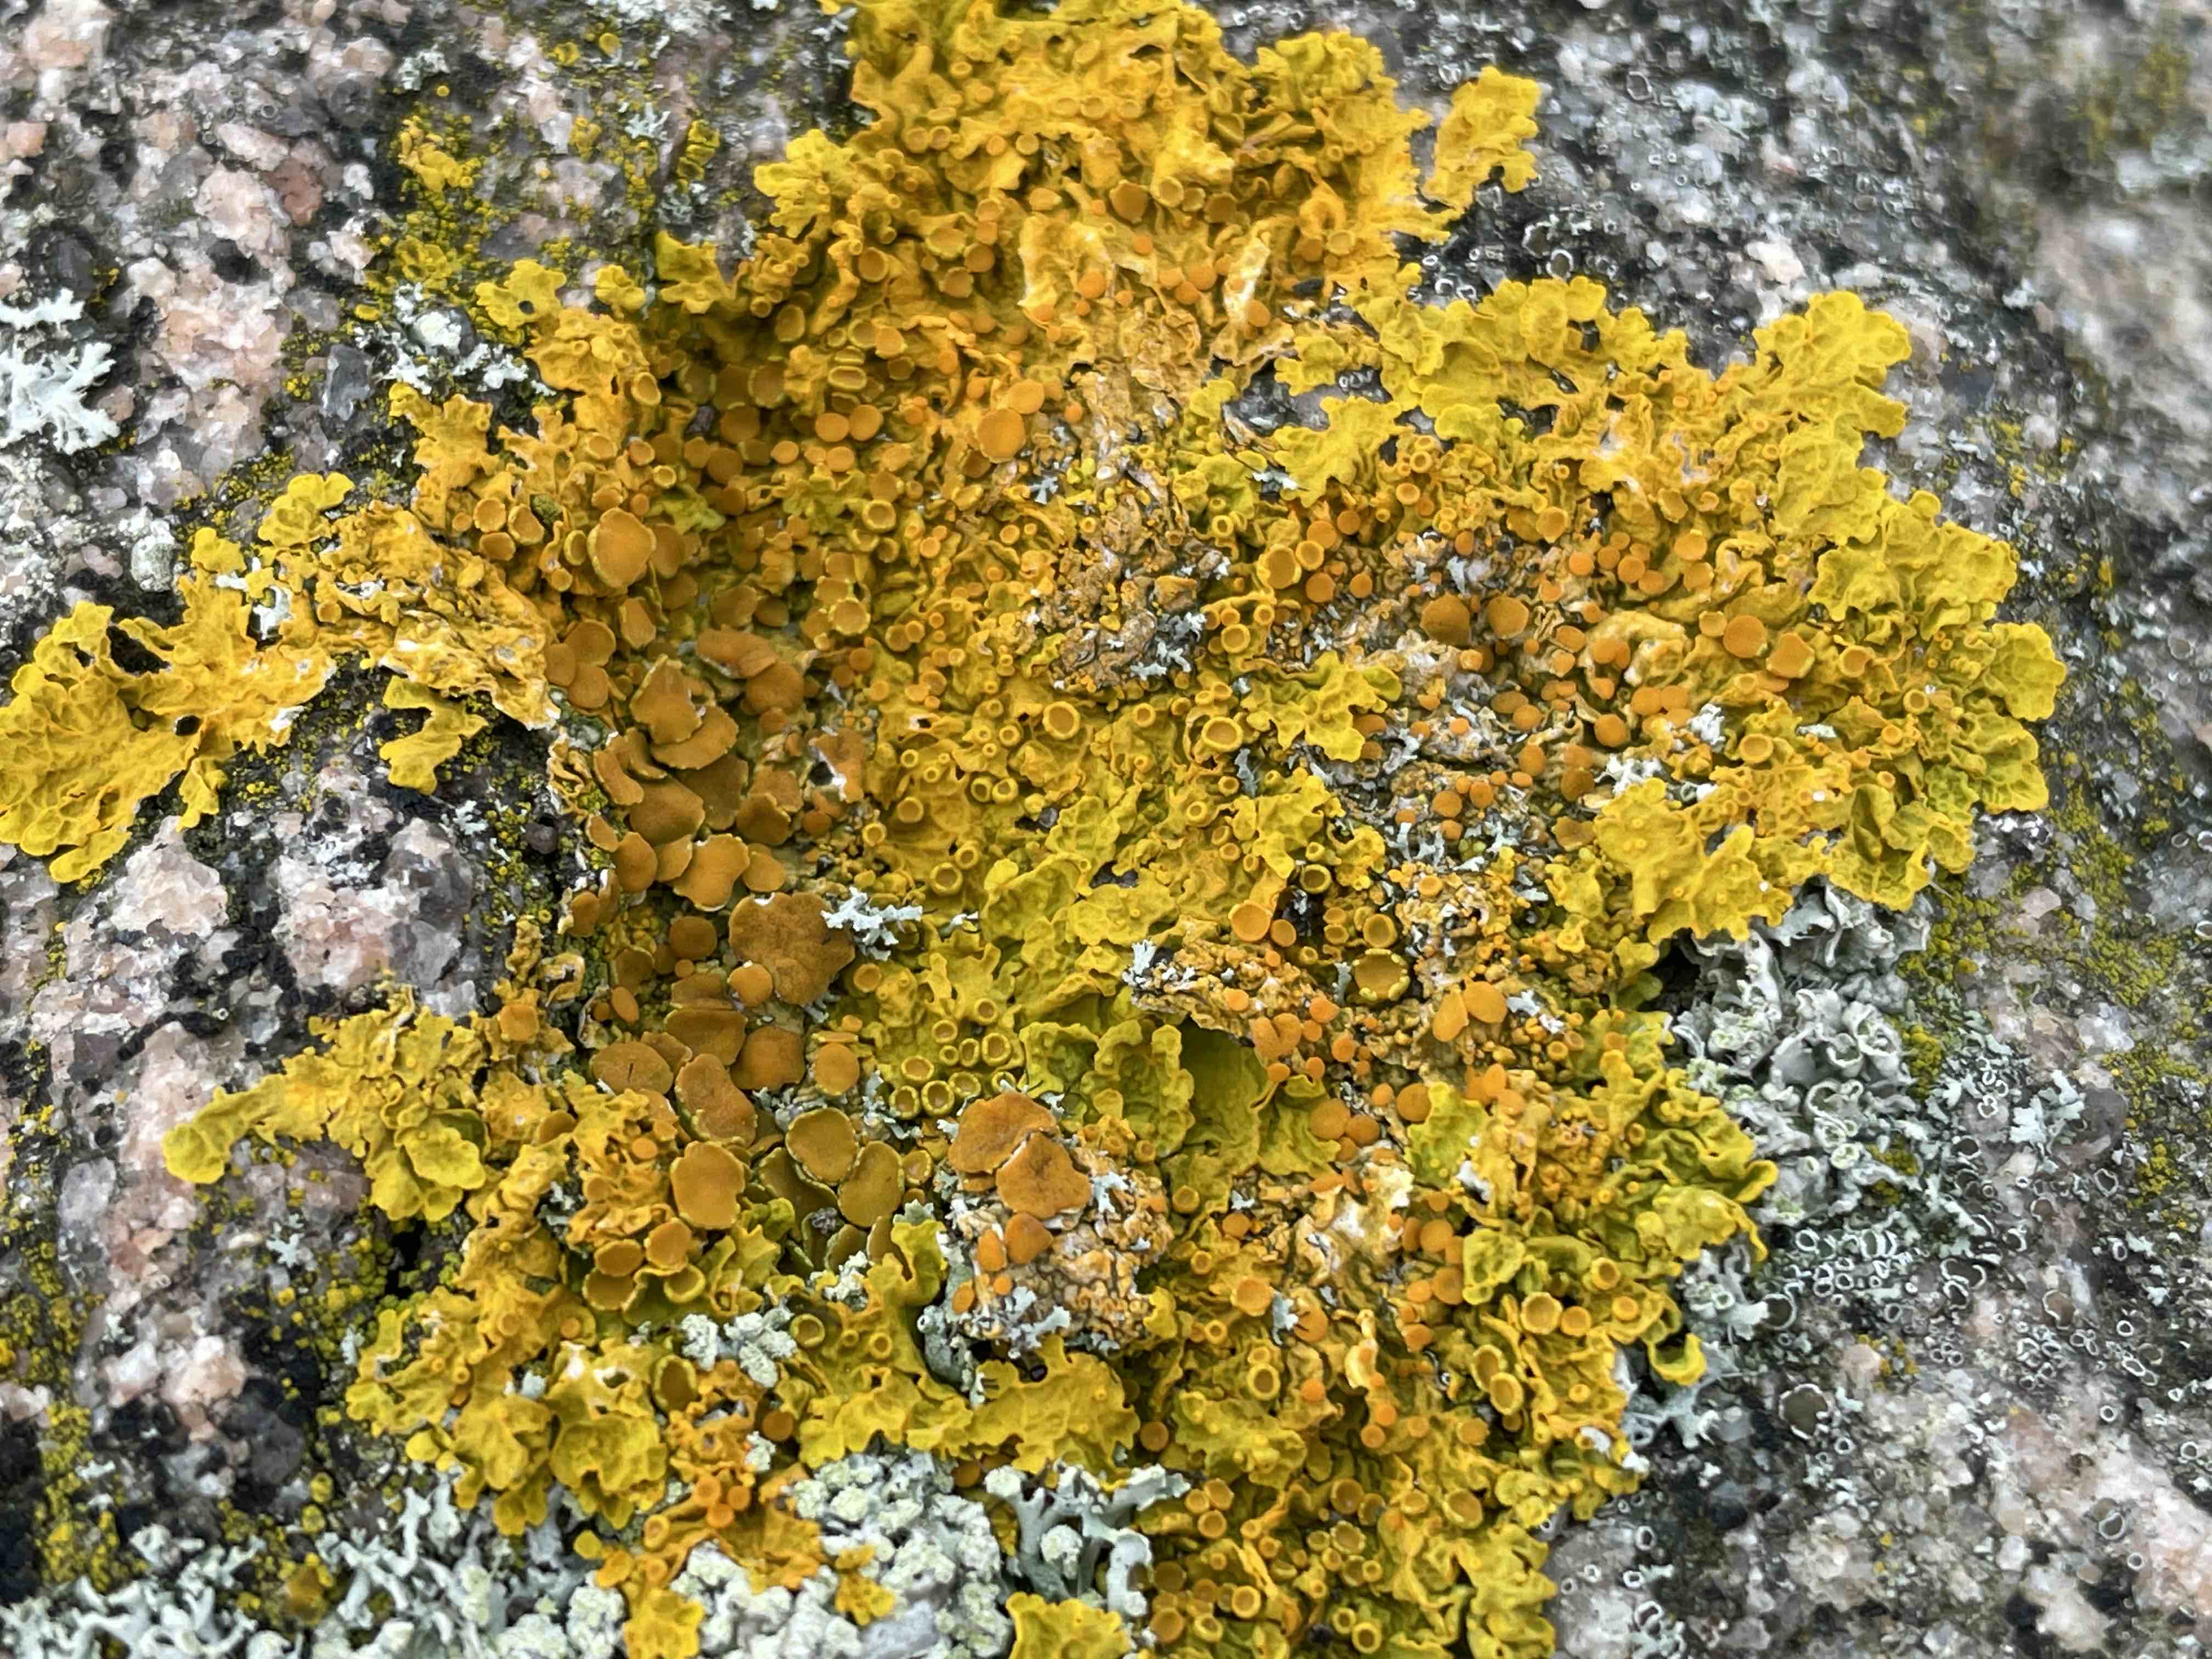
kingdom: Fungi
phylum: Ascomycota
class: Lecanoromycetes
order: Teloschistales
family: Teloschistaceae
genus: Xanthoria
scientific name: Xanthoria parietina
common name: almindelig væggelav
